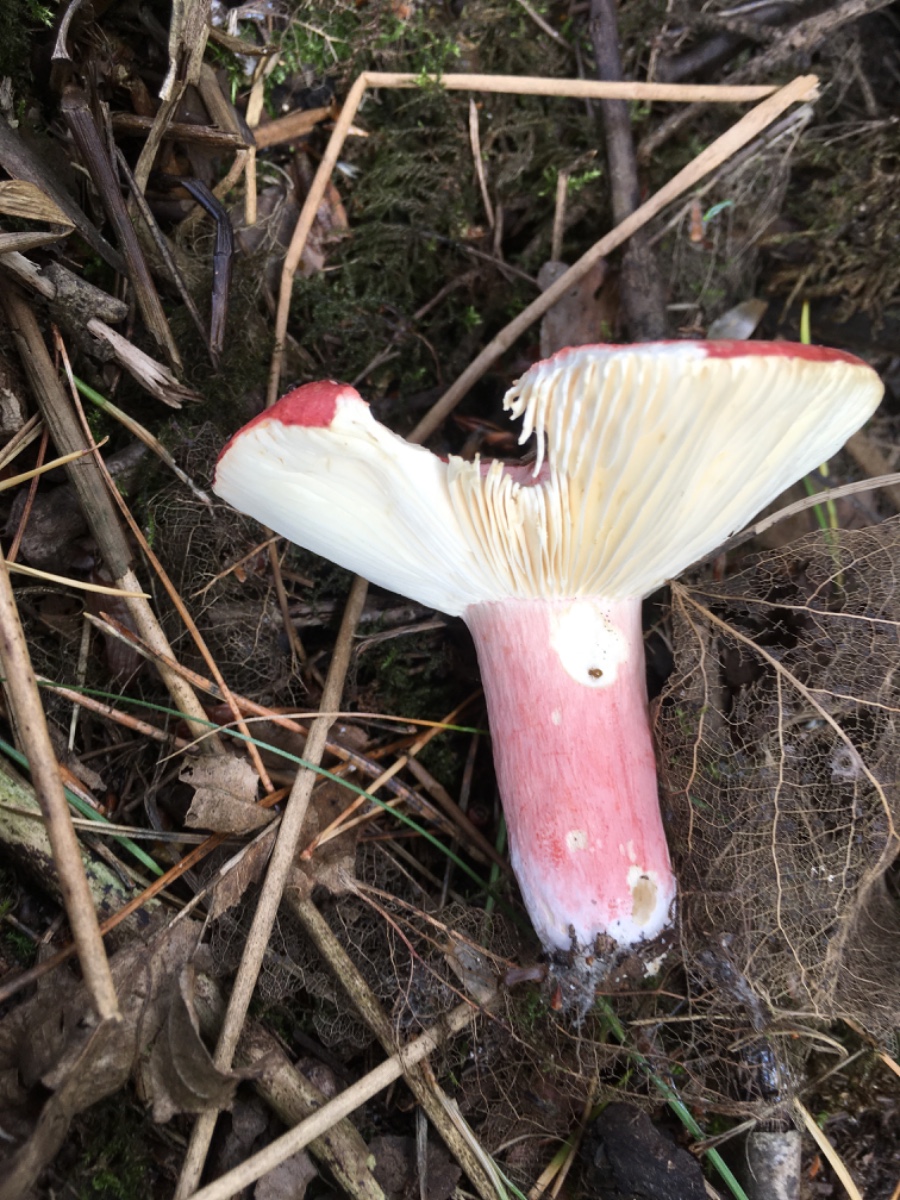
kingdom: Fungi
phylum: Basidiomycota
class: Agaricomycetes
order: Russulales
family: Russulaceae
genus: Russula
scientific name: Russula sanguinea
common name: blodrød skørhat
